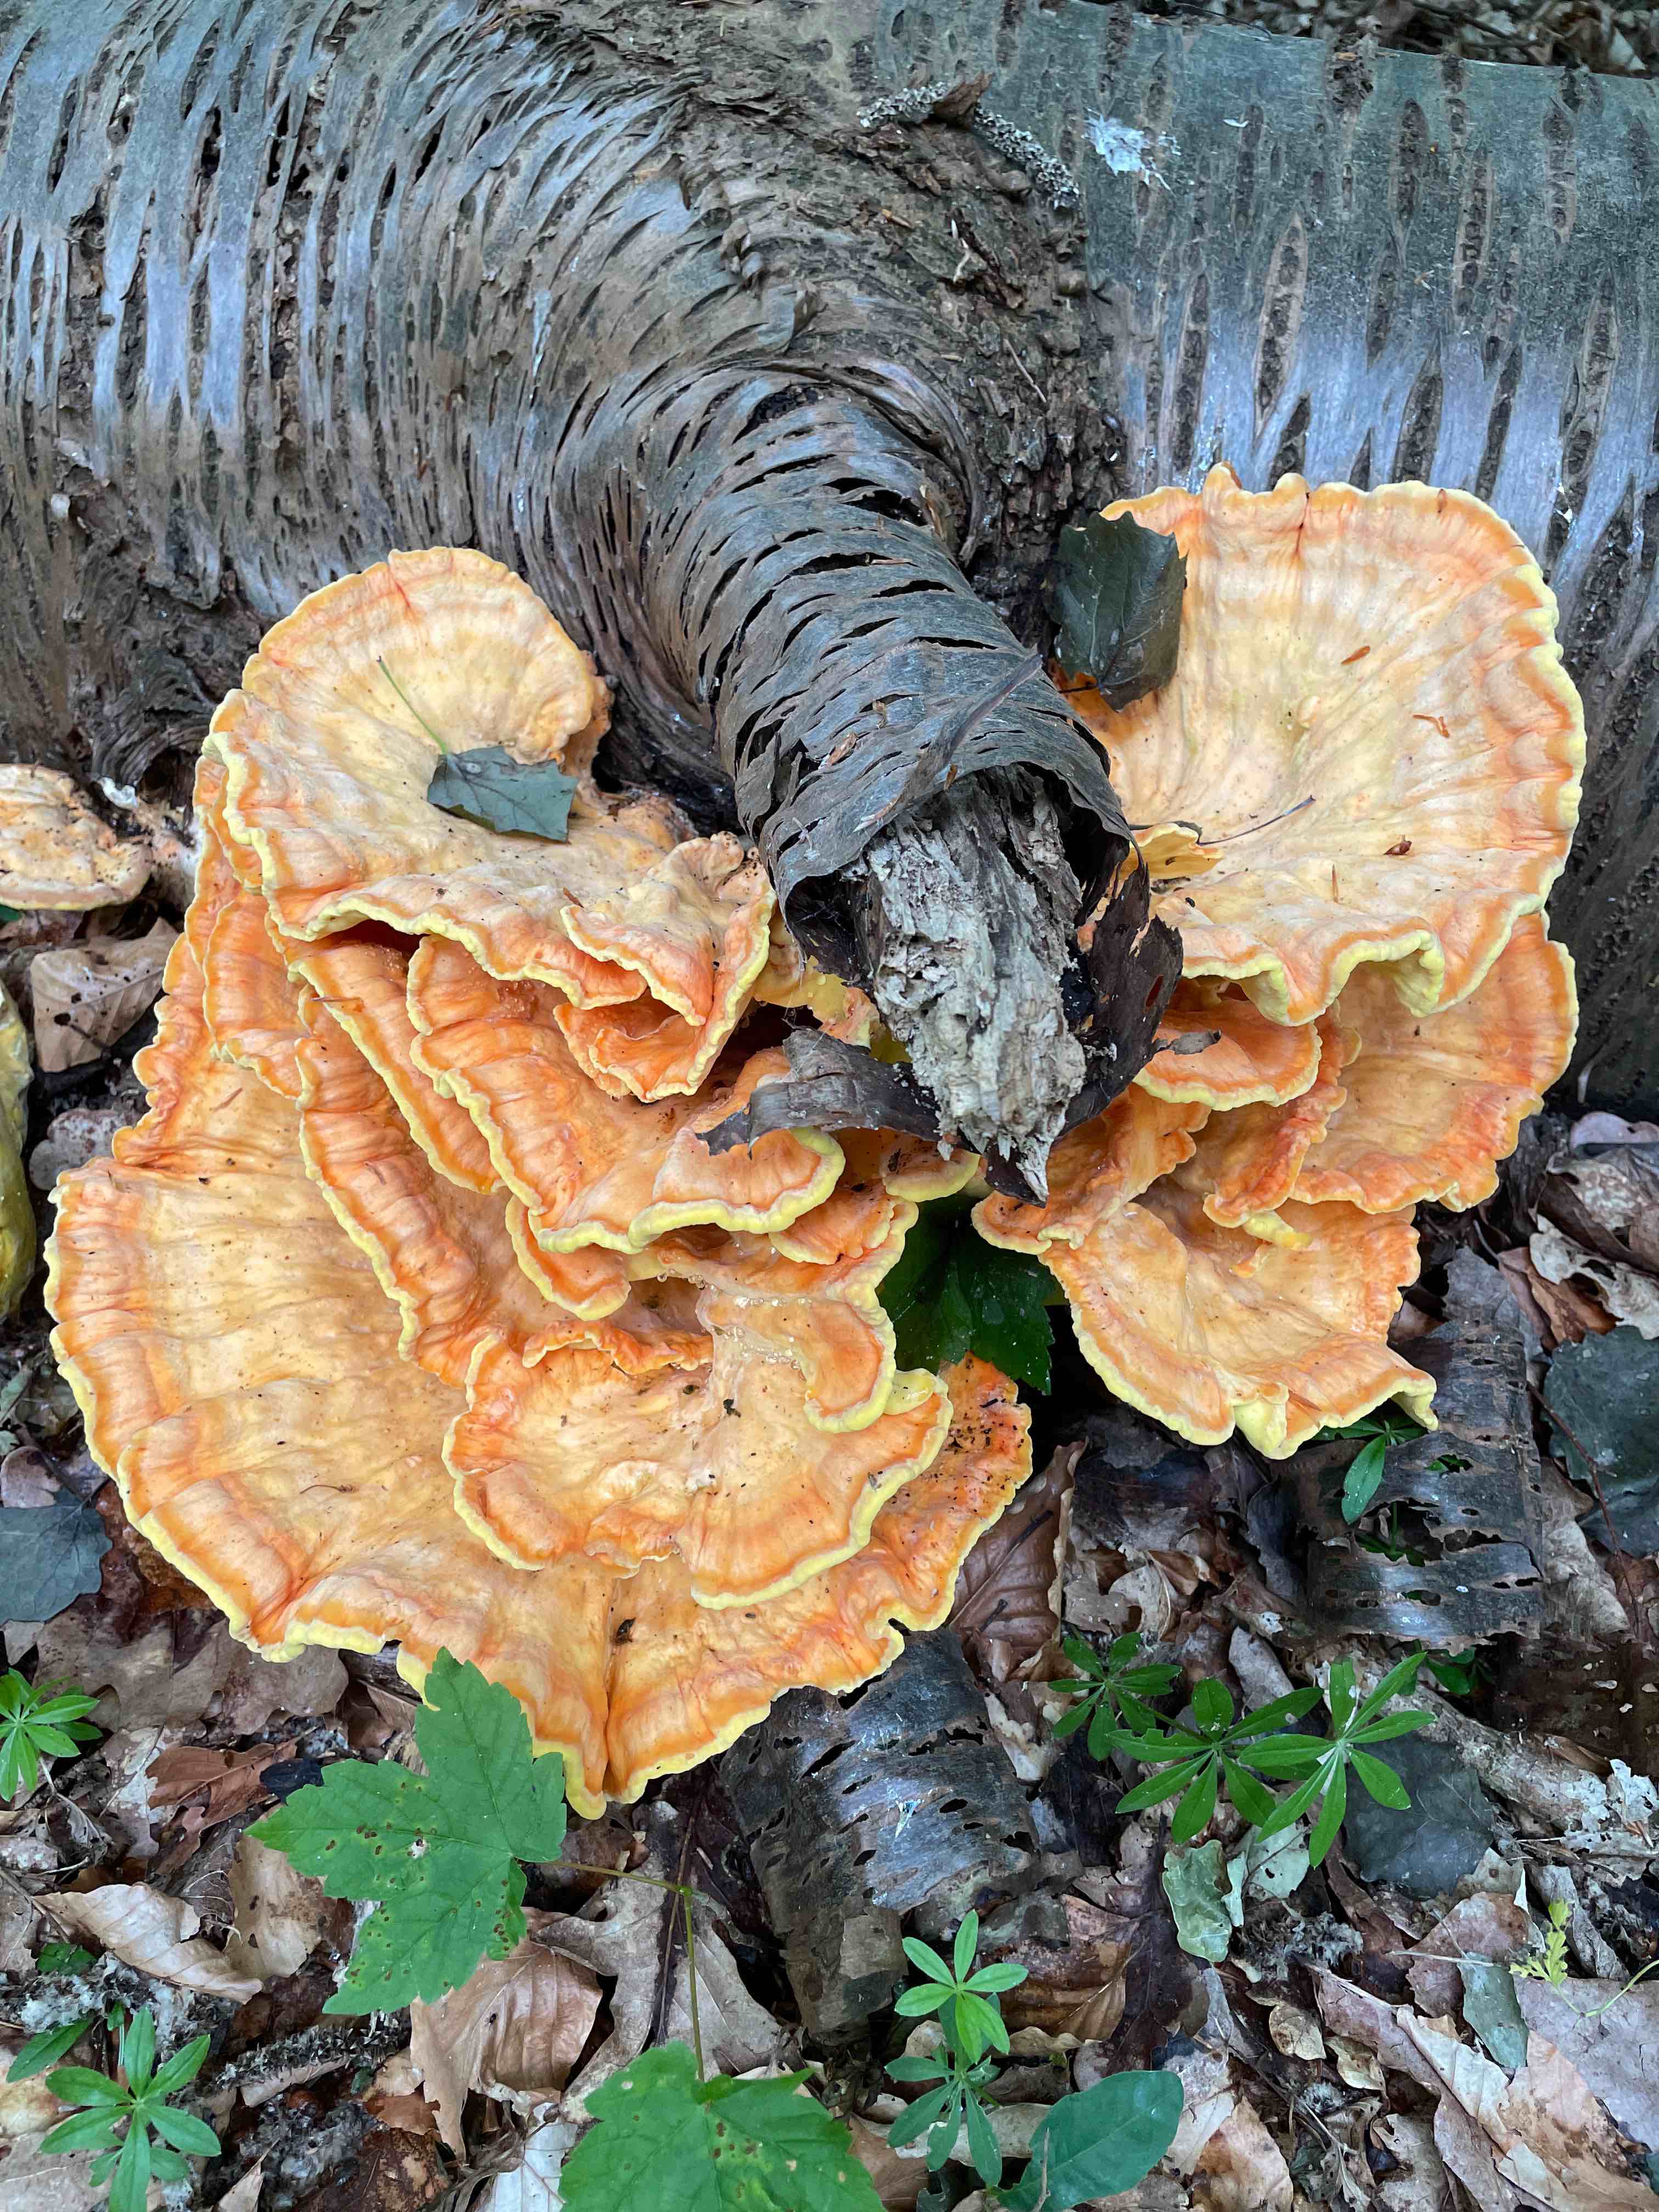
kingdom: Fungi
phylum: Basidiomycota
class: Agaricomycetes
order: Polyporales
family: Laetiporaceae
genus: Laetiporus
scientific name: Laetiporus sulphureus
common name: svovlporesvamp
